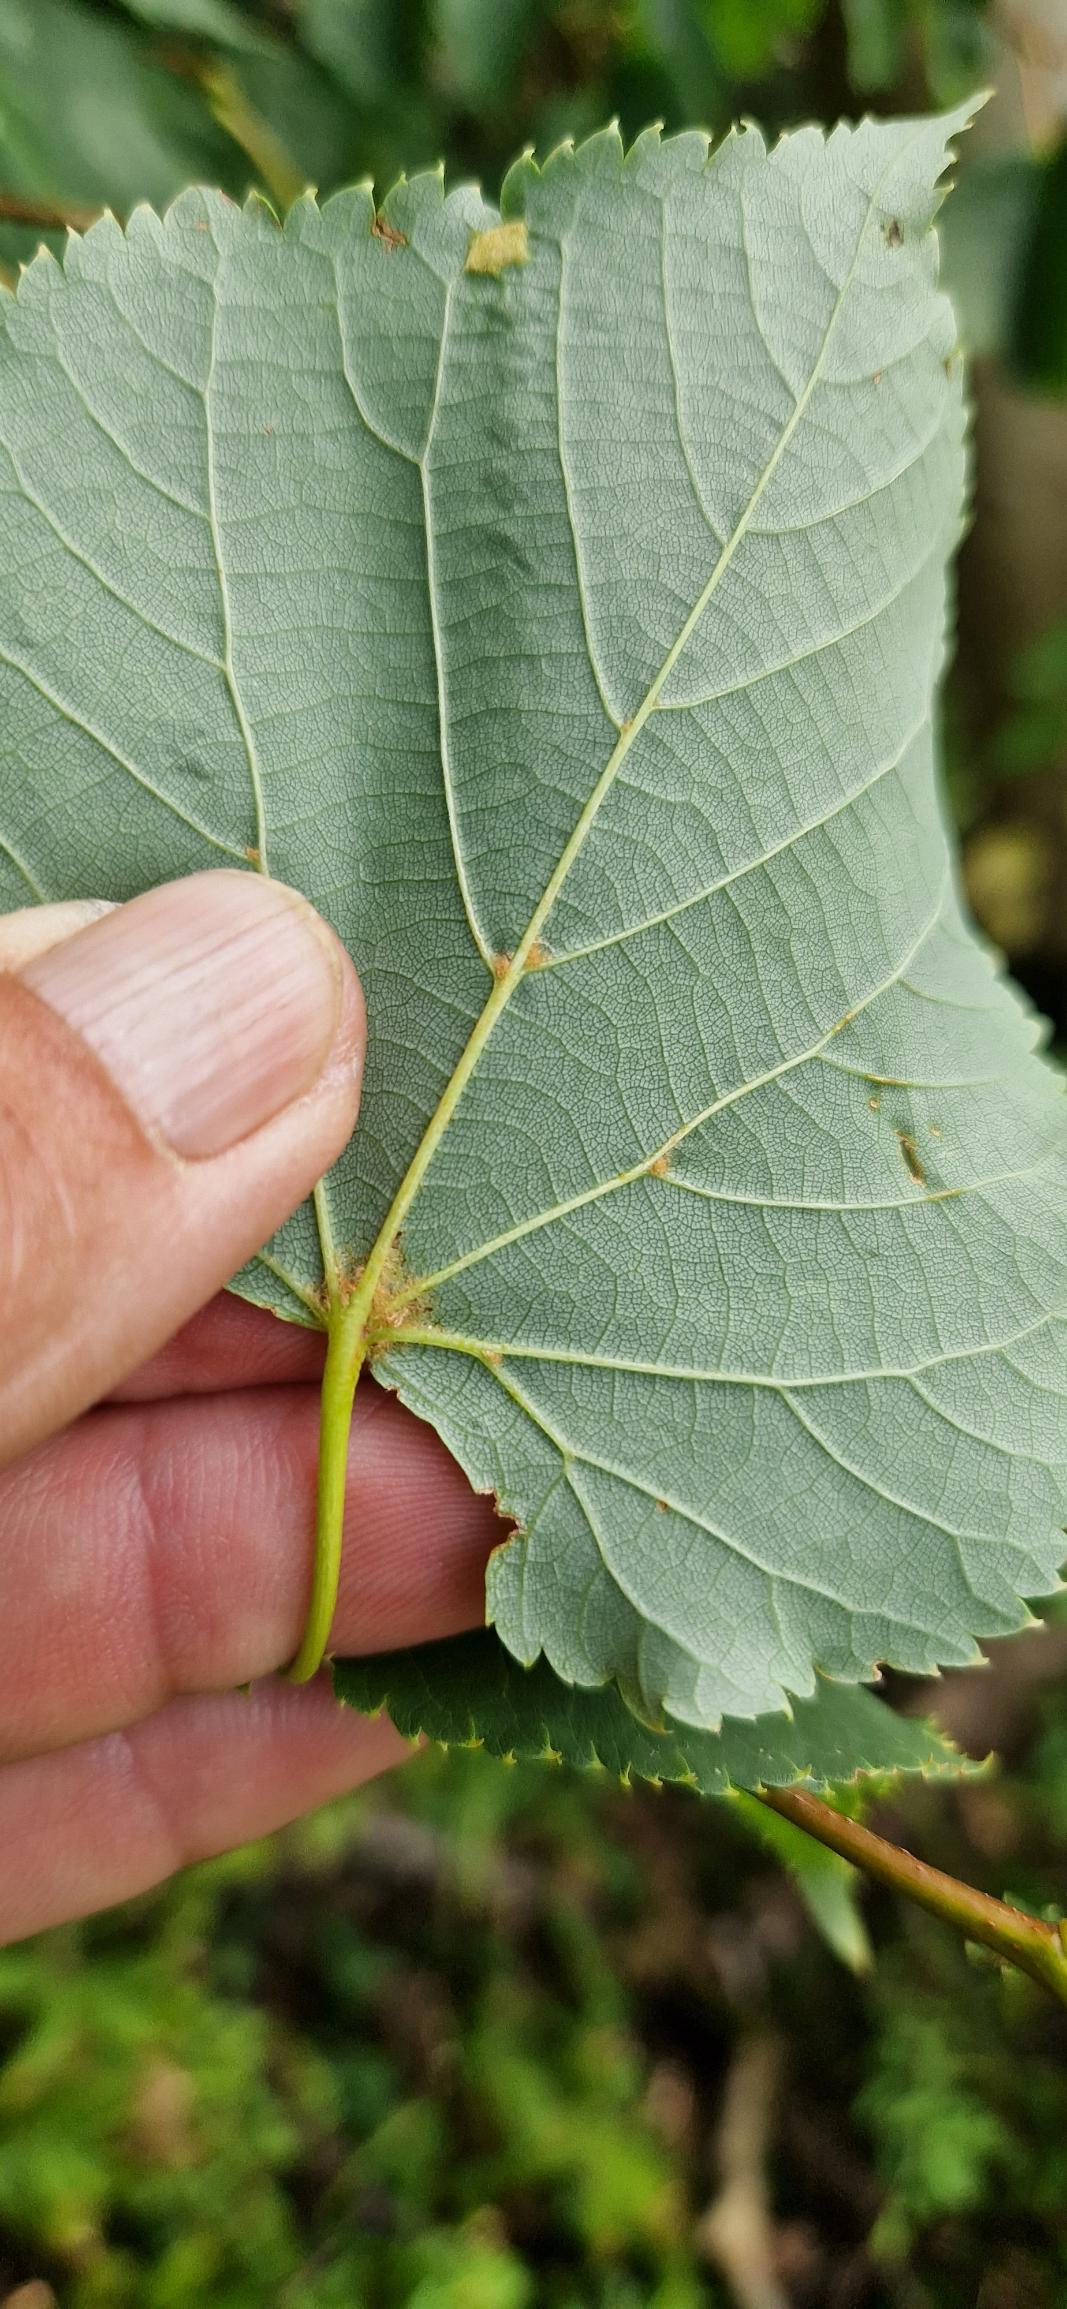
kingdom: Plantae
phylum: Tracheophyta
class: Magnoliopsida
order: Malvales
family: Malvaceae
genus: Tilia
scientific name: Tilia cordata
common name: Småbladet lind
